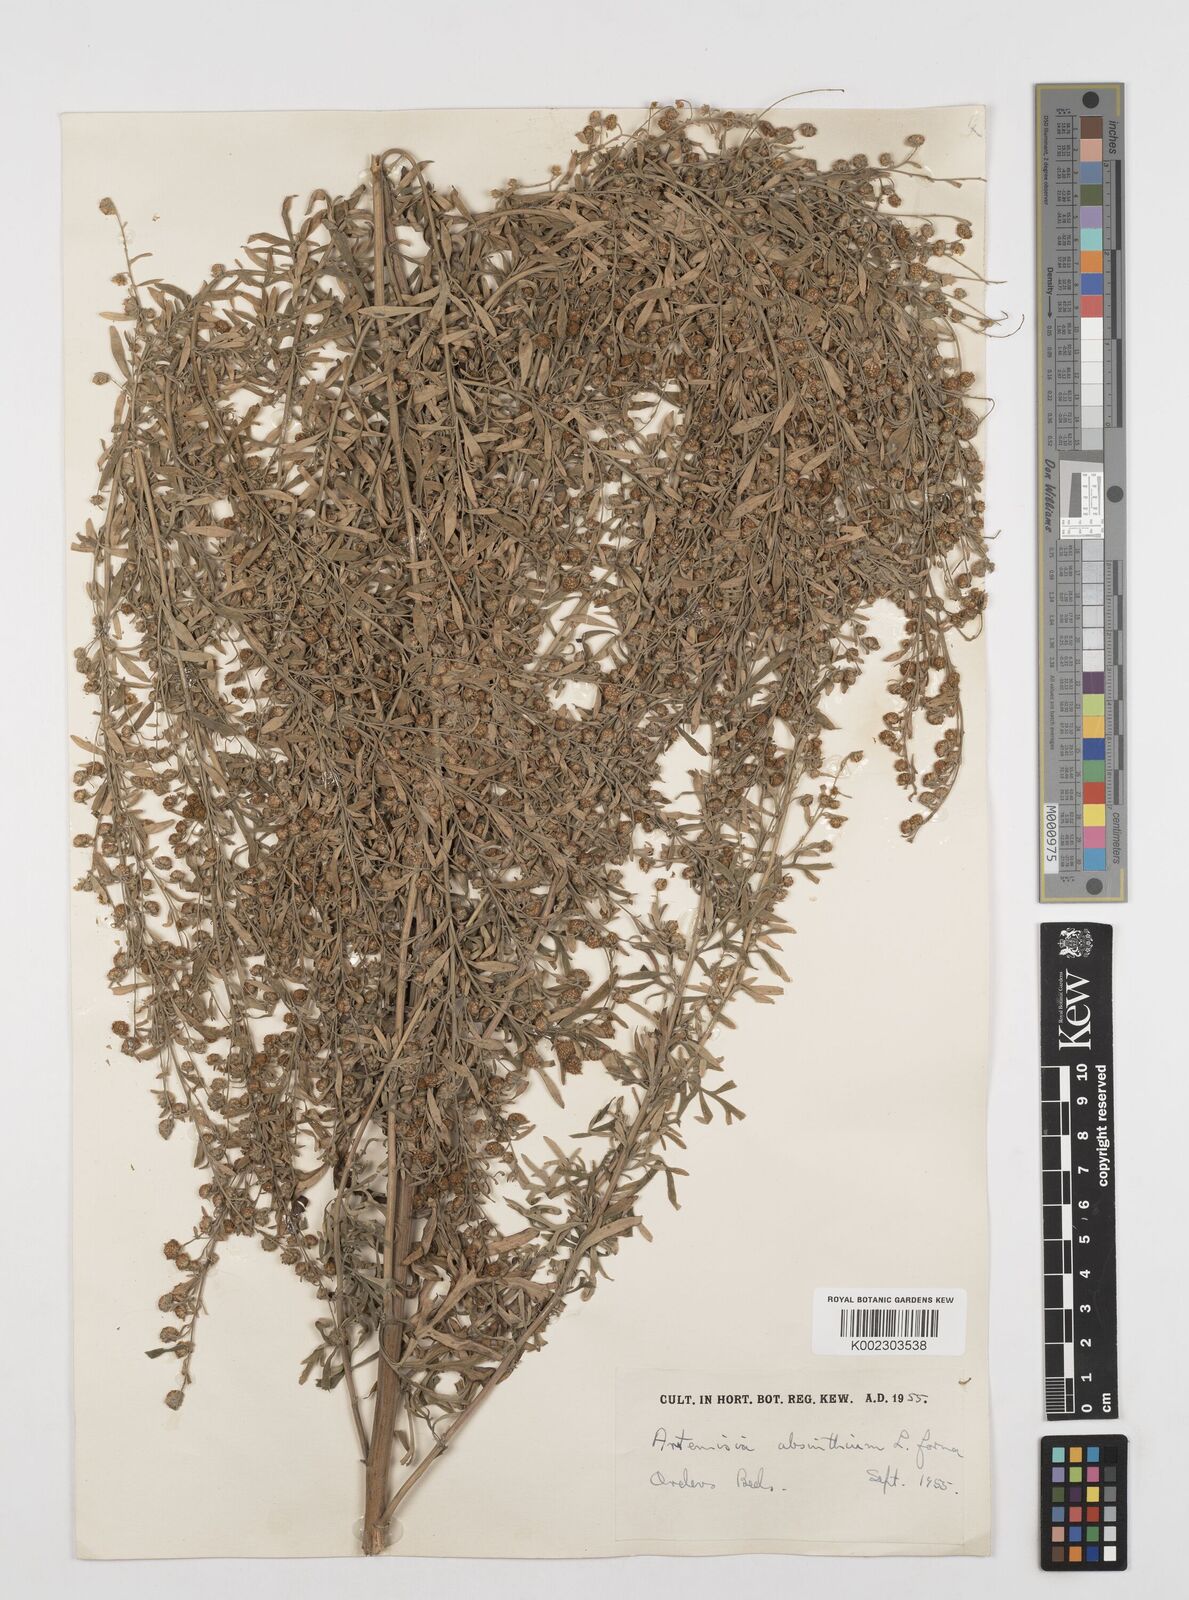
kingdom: Plantae
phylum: Tracheophyta
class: Magnoliopsida
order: Asterales
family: Asteraceae
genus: Artemisia
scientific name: Artemisia absinthium
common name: Wormwood
